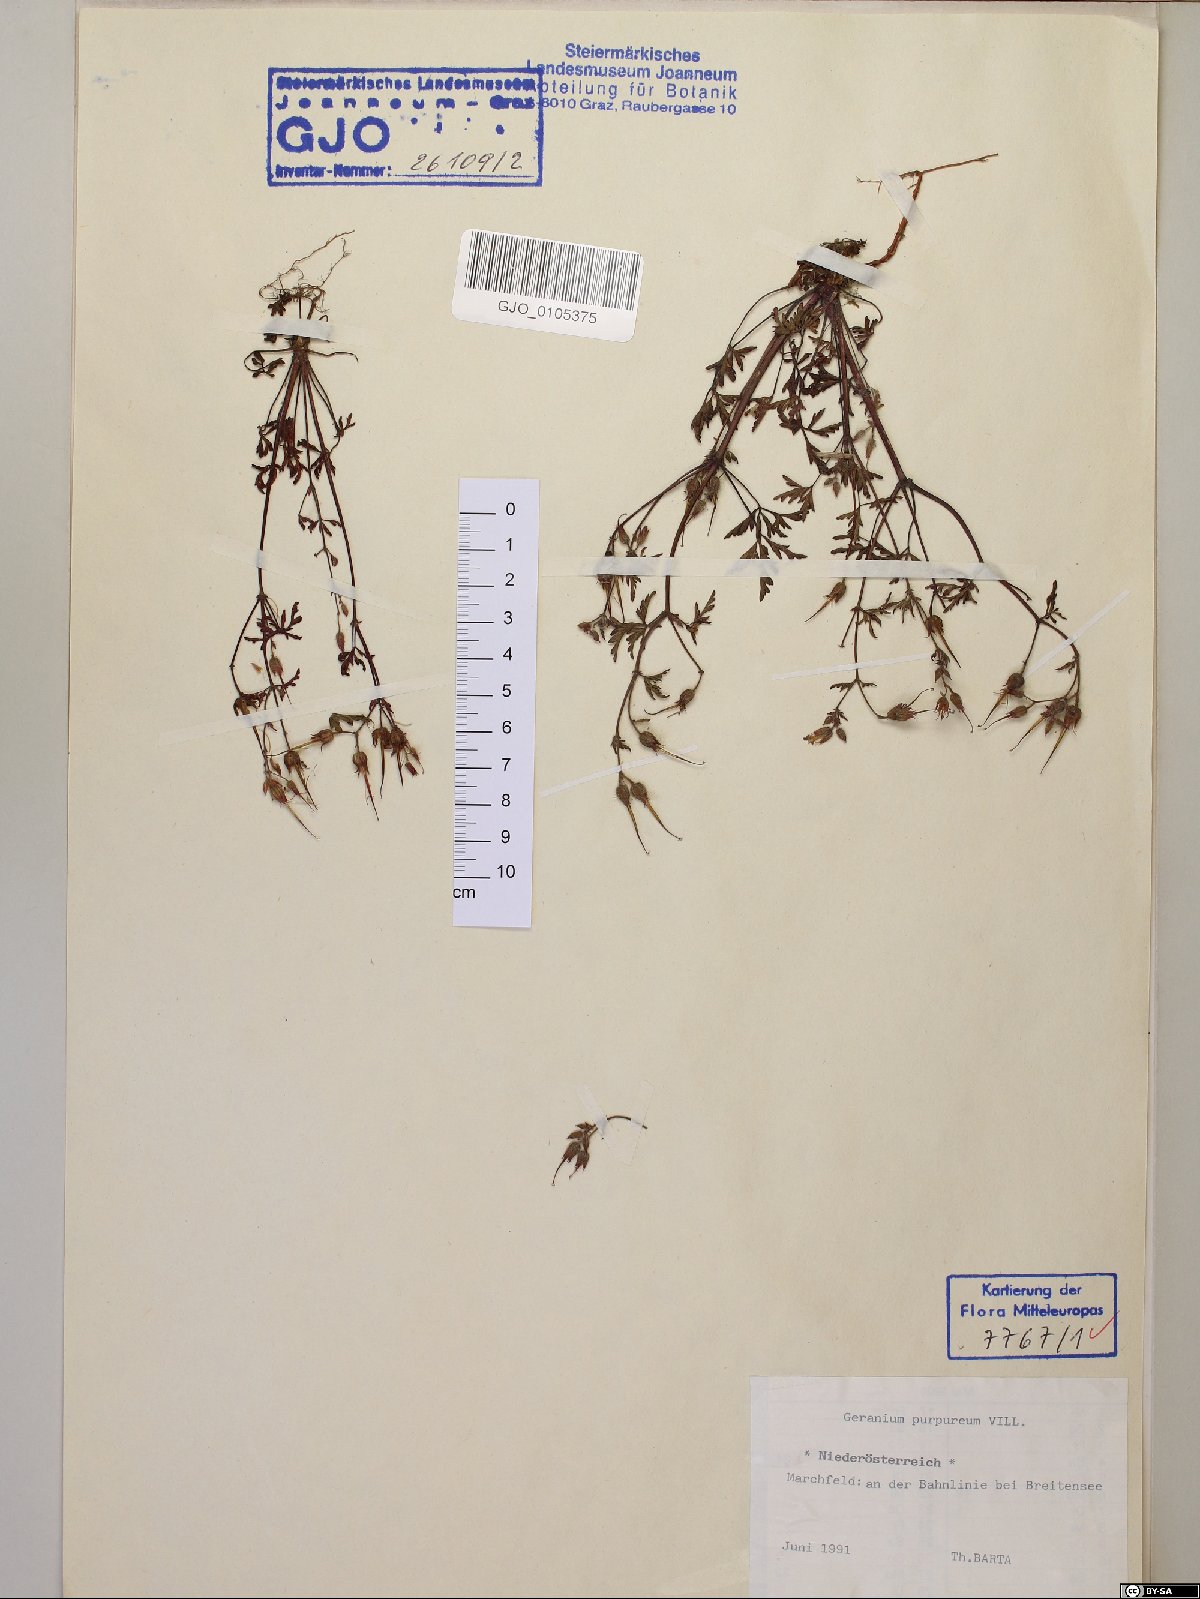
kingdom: Plantae
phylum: Tracheophyta
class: Magnoliopsida
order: Geraniales
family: Geraniaceae
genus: Geranium
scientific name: Geranium purpureum
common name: Little-robin
